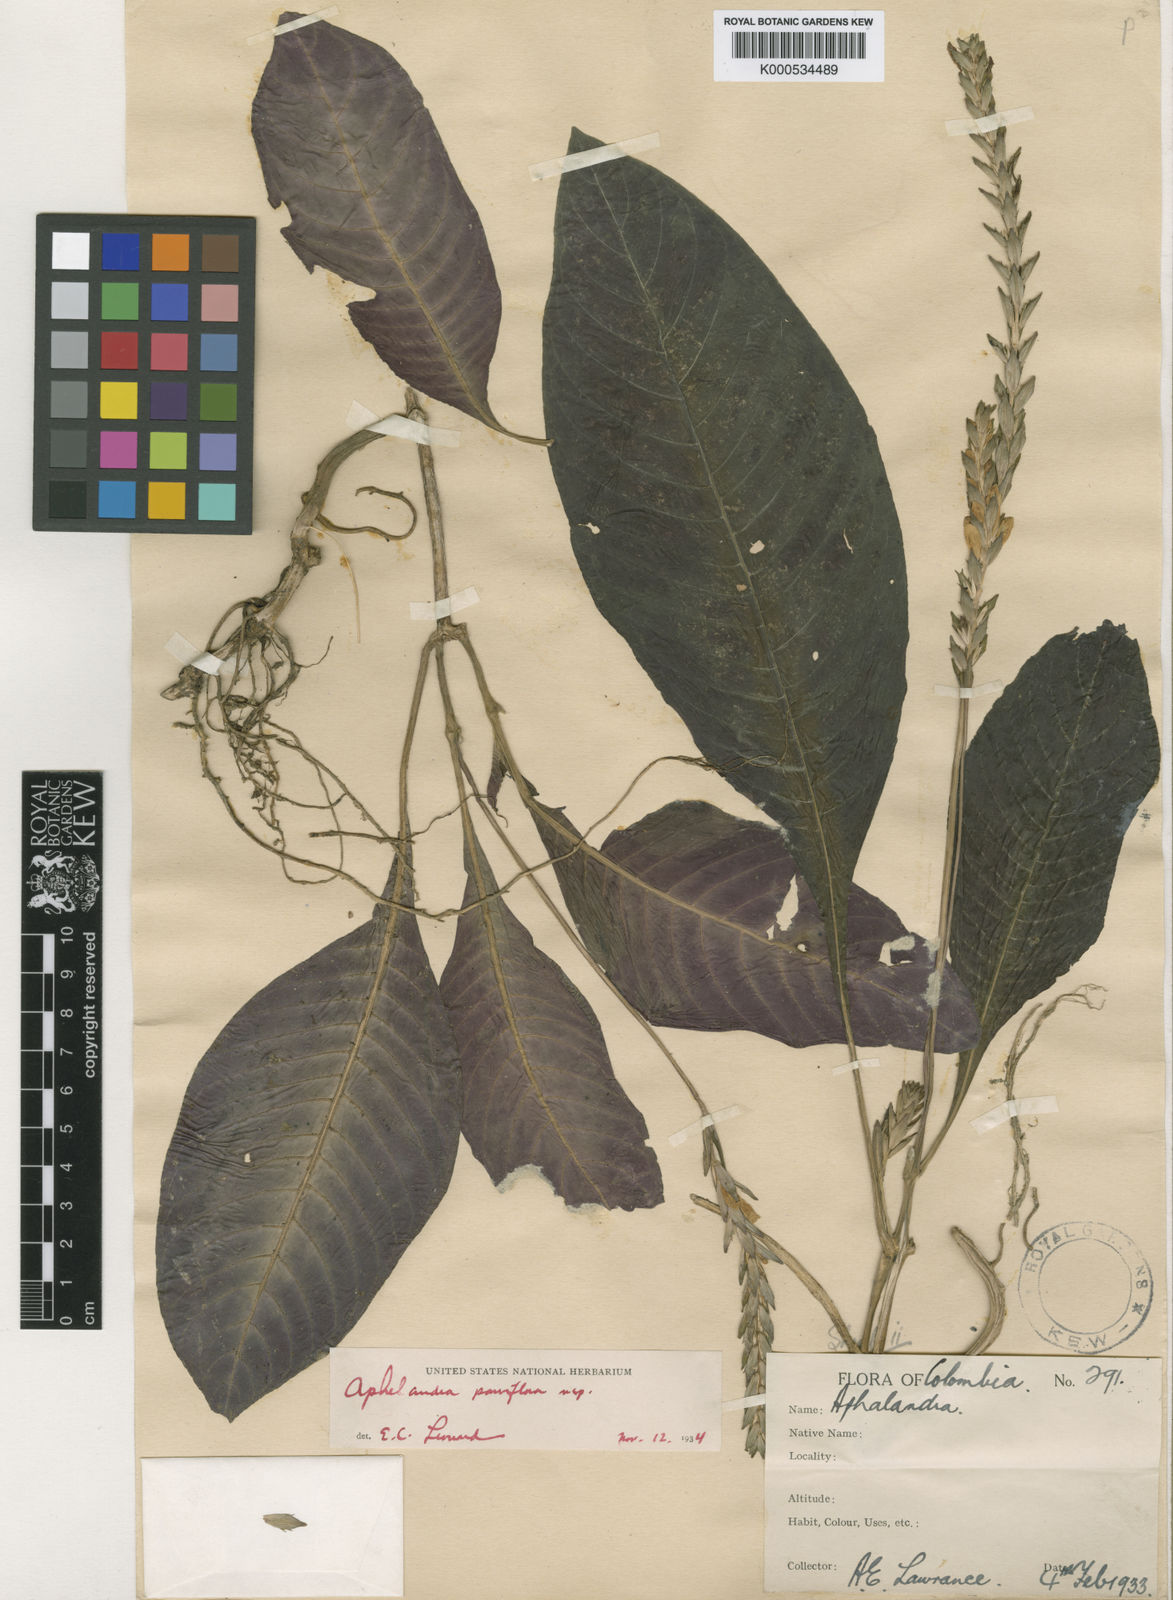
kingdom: Plantae
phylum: Tracheophyta
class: Magnoliopsida
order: Lamiales
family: Acanthaceae
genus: Aphelandra
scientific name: Aphelandra parviflora
